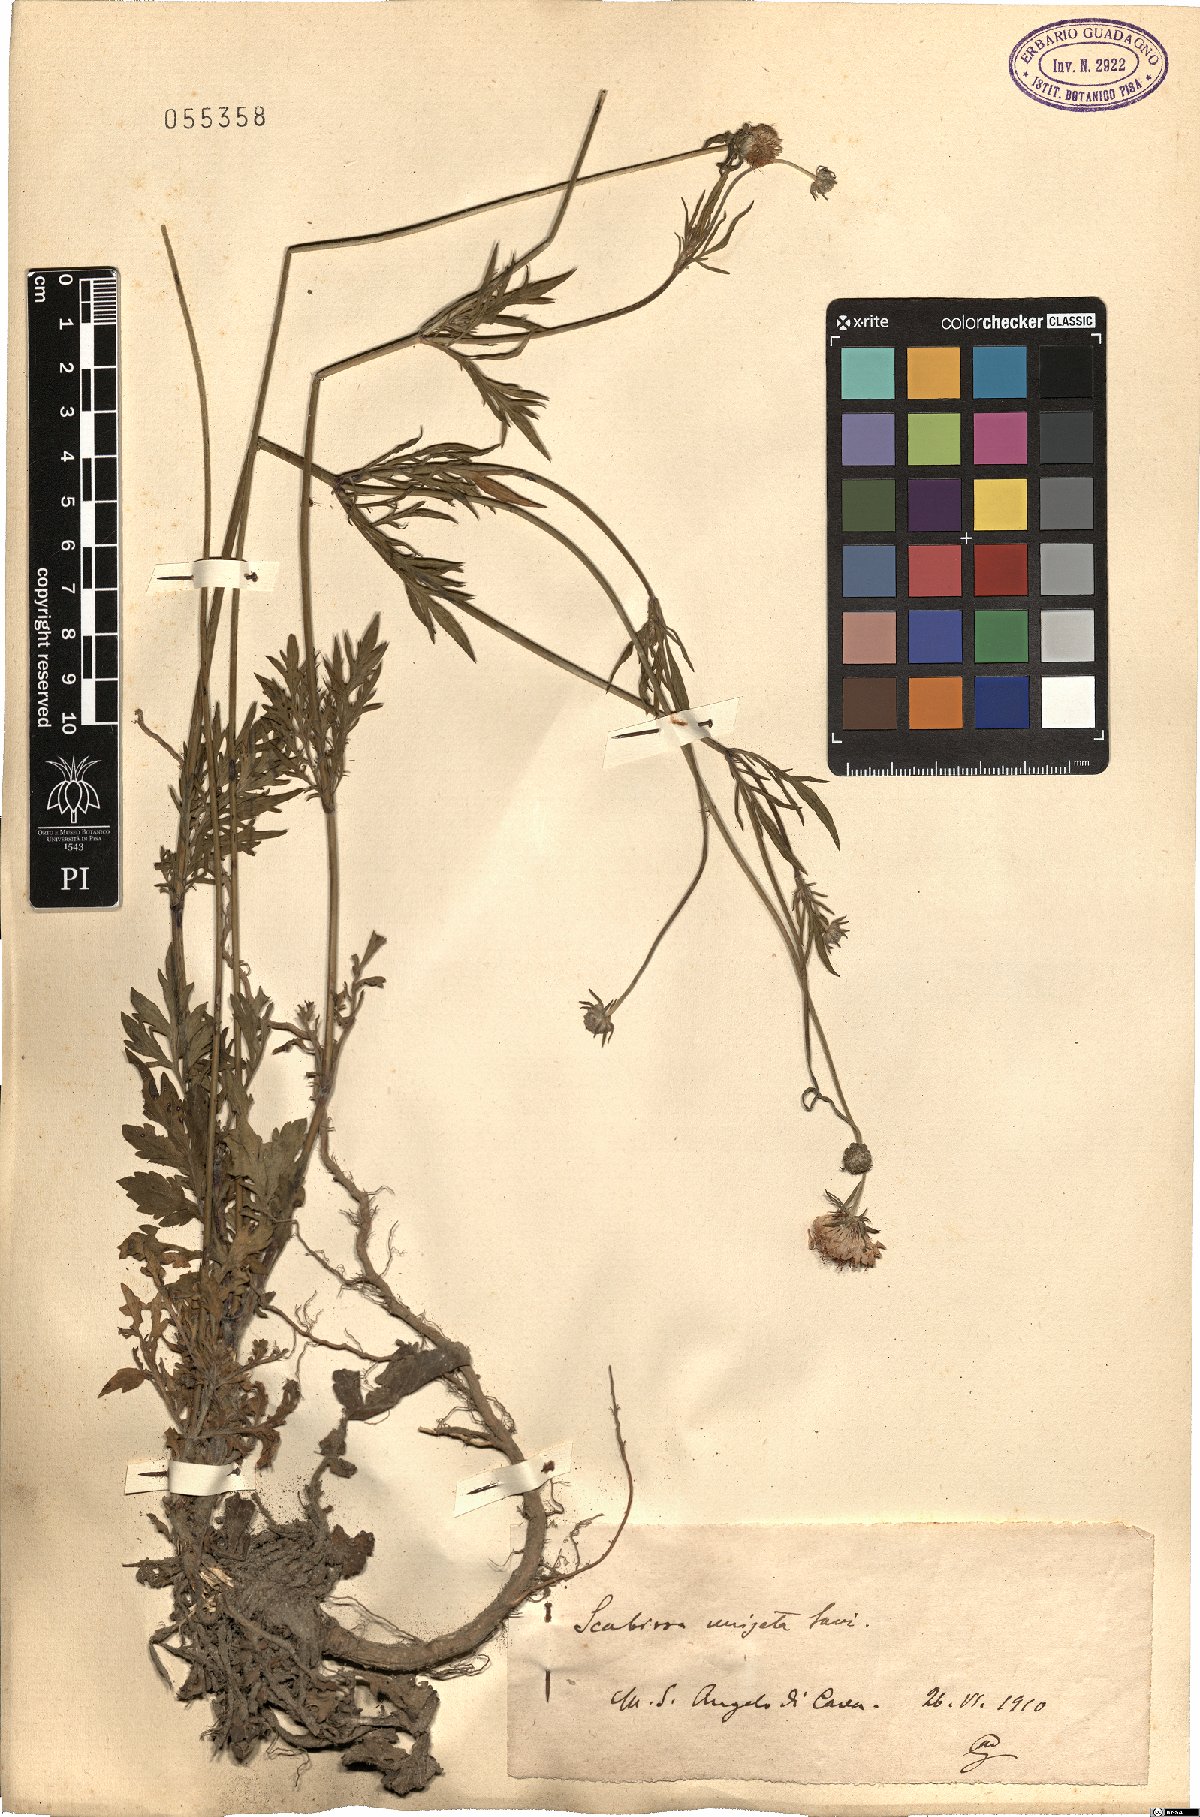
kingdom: Plantae
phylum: Tracheophyta
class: Magnoliopsida
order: Dipsacales
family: Caprifoliaceae
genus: Scabiosa
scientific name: Scabiosa columbaria
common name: Small scabious
